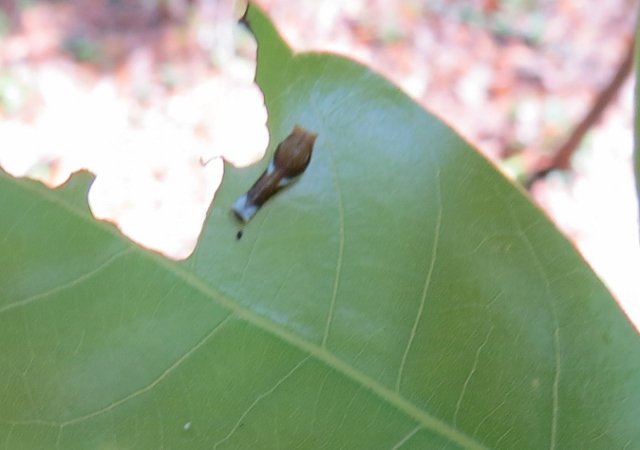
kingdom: Animalia
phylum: Arthropoda
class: Insecta
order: Lepidoptera
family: Papilionidae
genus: Pterourus
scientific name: Pterourus palamedes
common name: Palamedes Swallowtail
